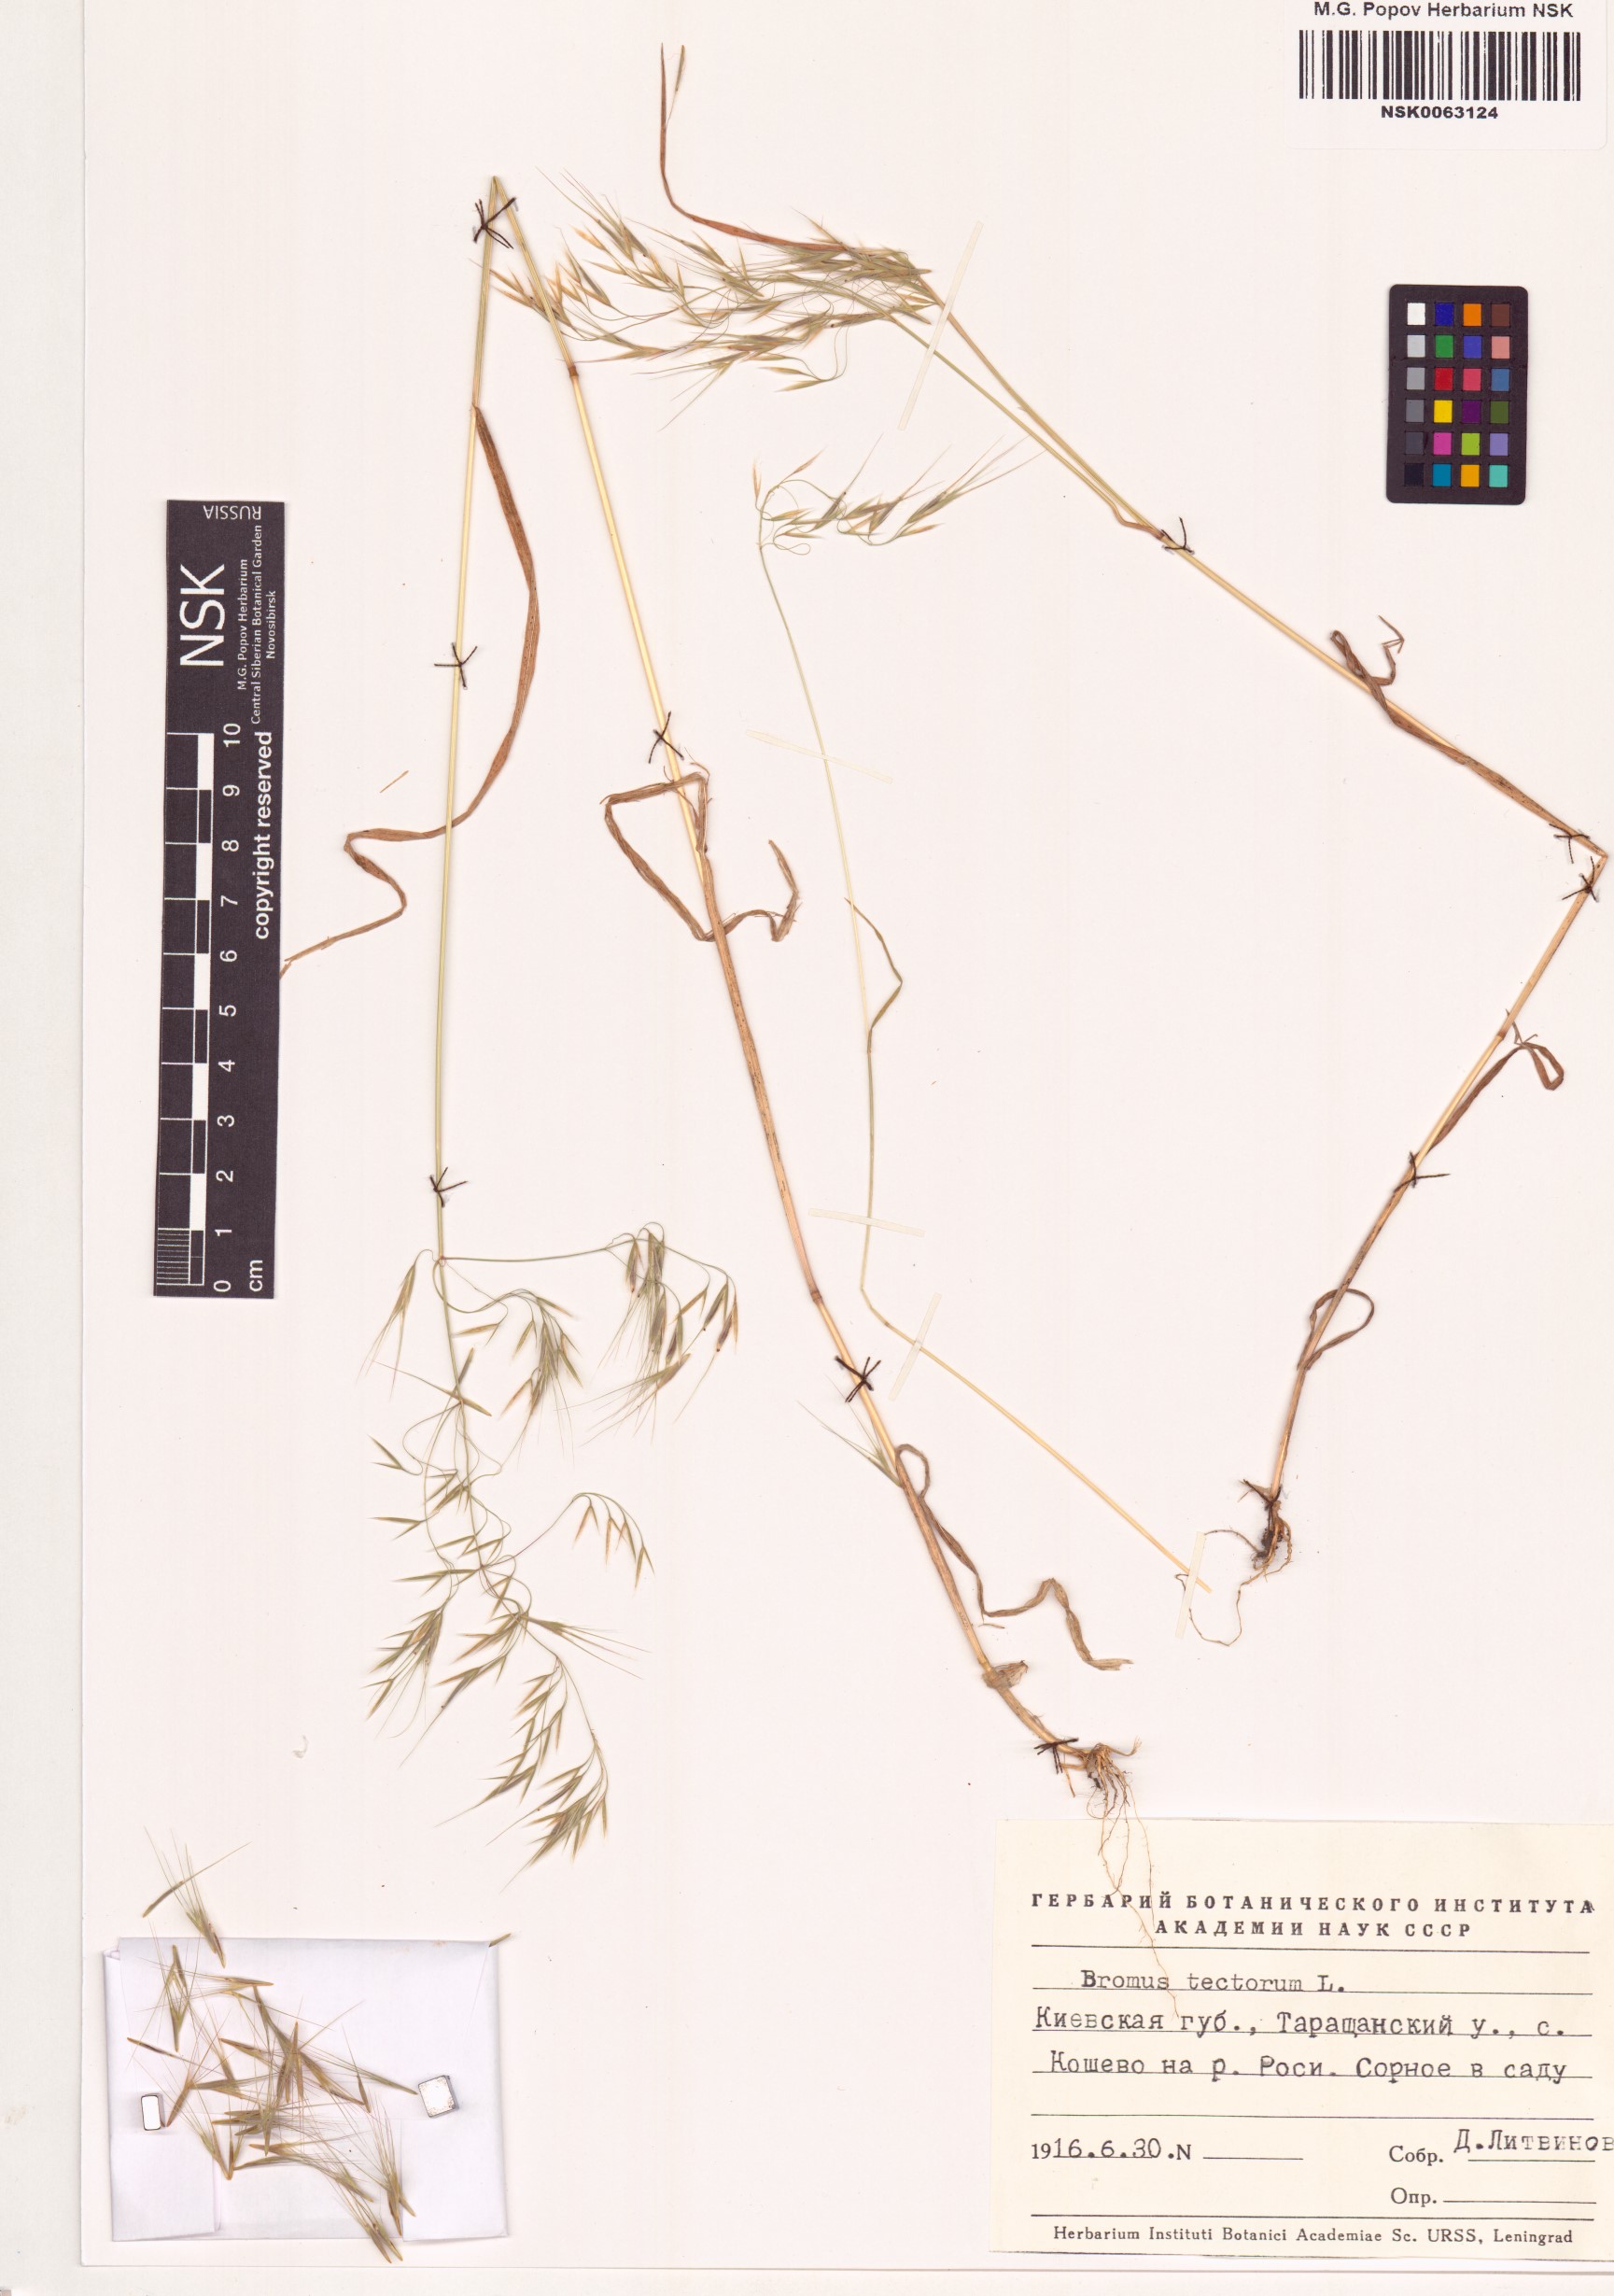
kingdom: Plantae
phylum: Tracheophyta
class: Liliopsida
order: Poales
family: Poaceae
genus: Bromus
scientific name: Bromus tectorum
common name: Cheatgrass
